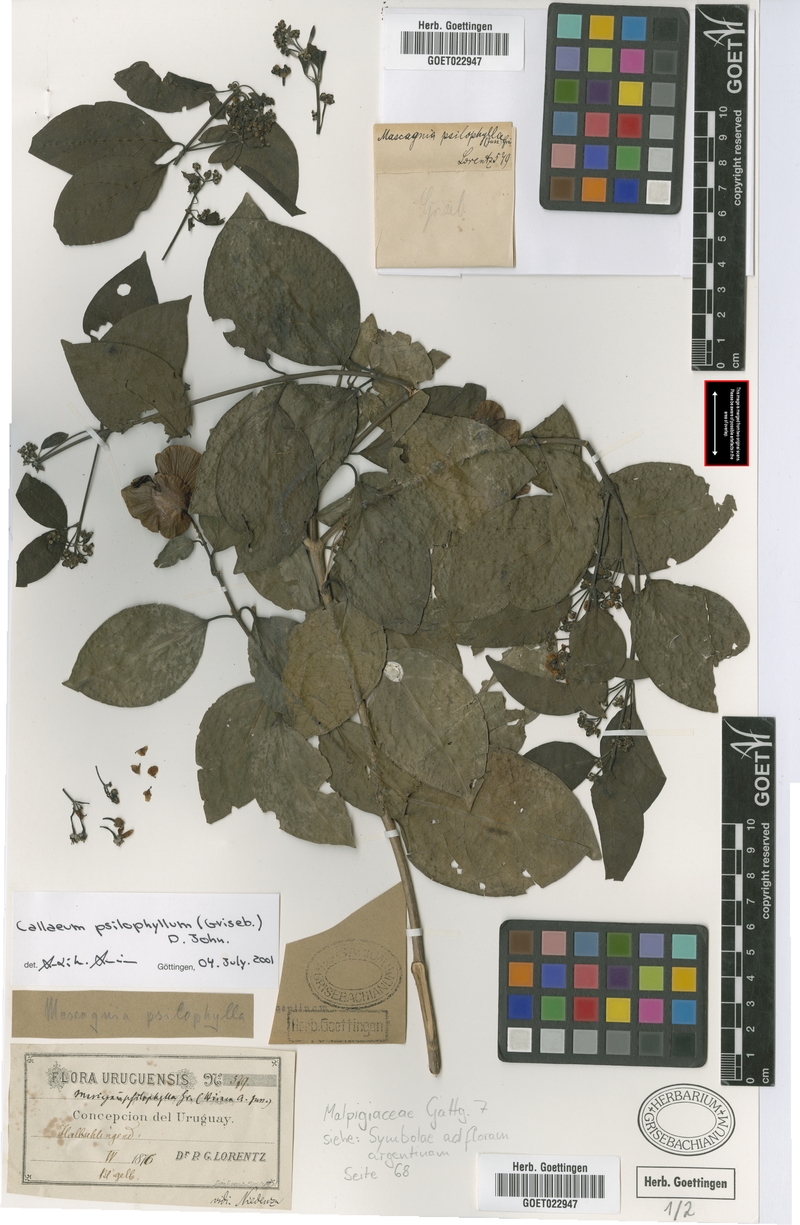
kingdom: Plantae
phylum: Tracheophyta
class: Magnoliopsida
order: Malpighiales
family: Malpighiaceae
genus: Callaeum
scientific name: Callaeum psilophyllum
